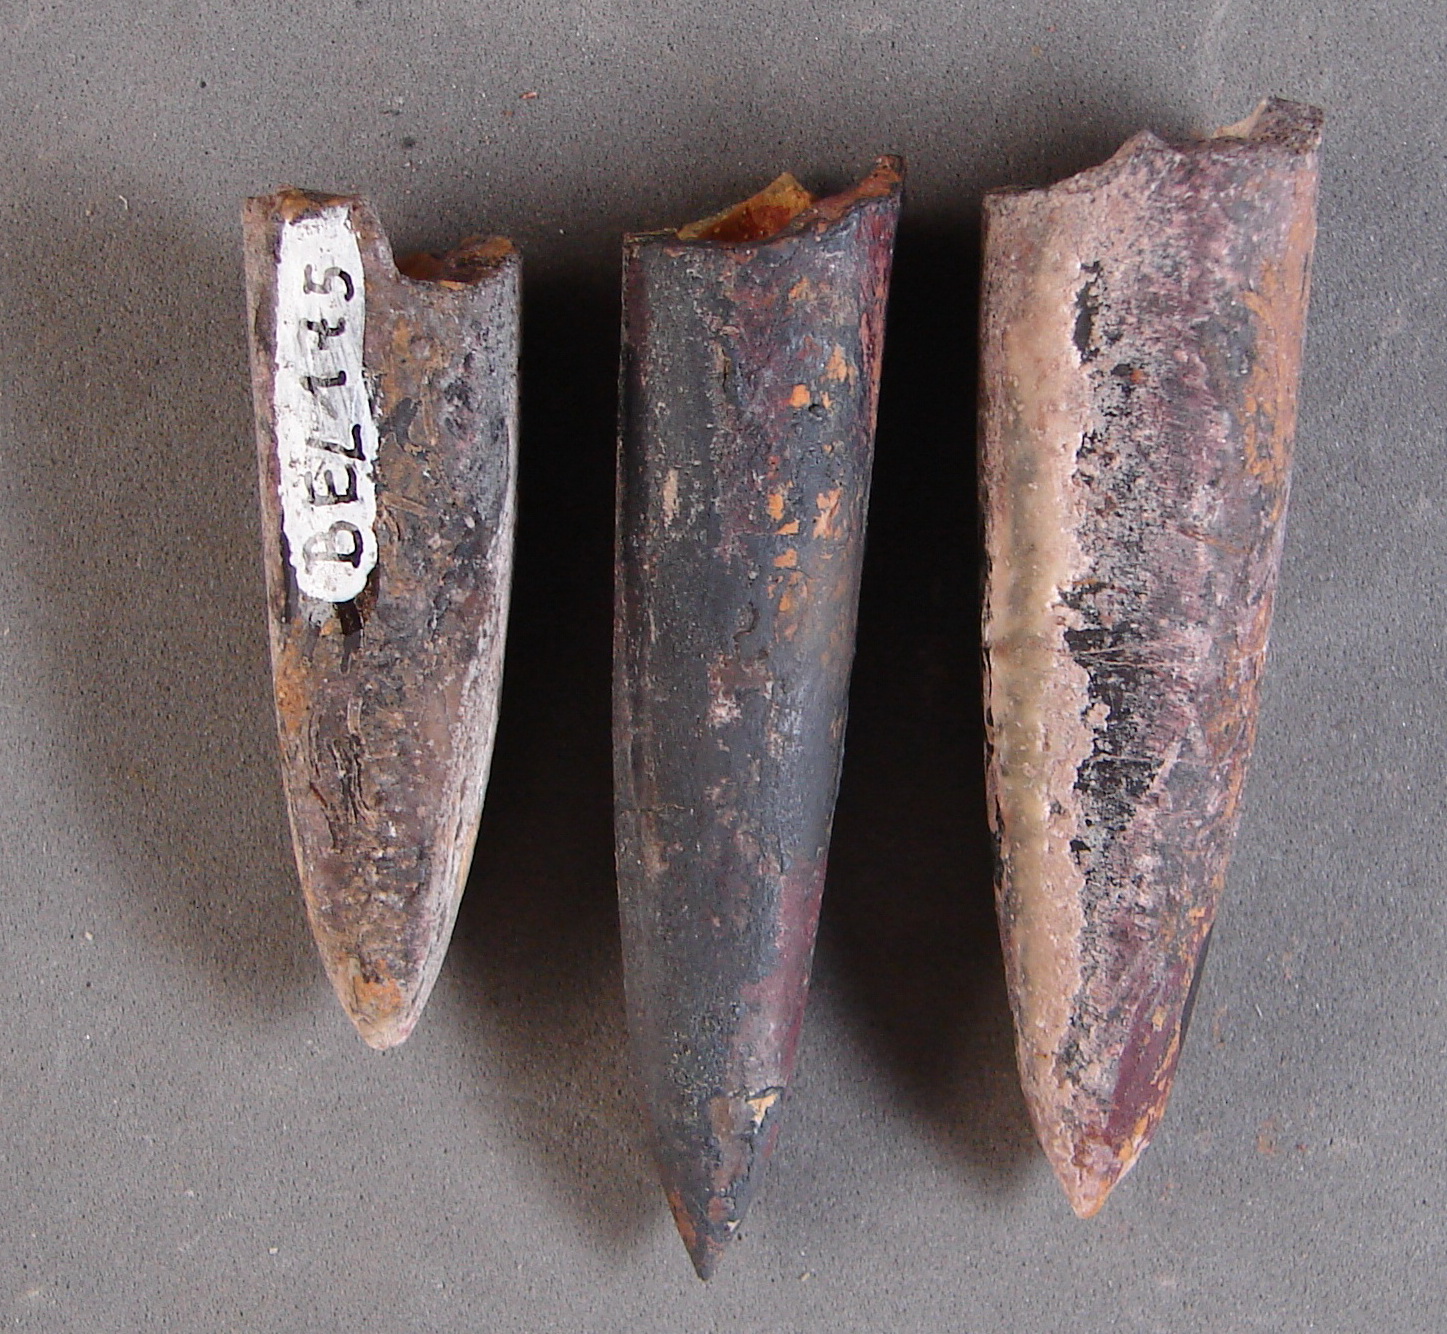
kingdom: Animalia
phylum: Mollusca
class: Cephalopoda
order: Belemnitida
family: Passaloteuthidae
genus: Brevibelus
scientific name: Brevibelus breviformis
